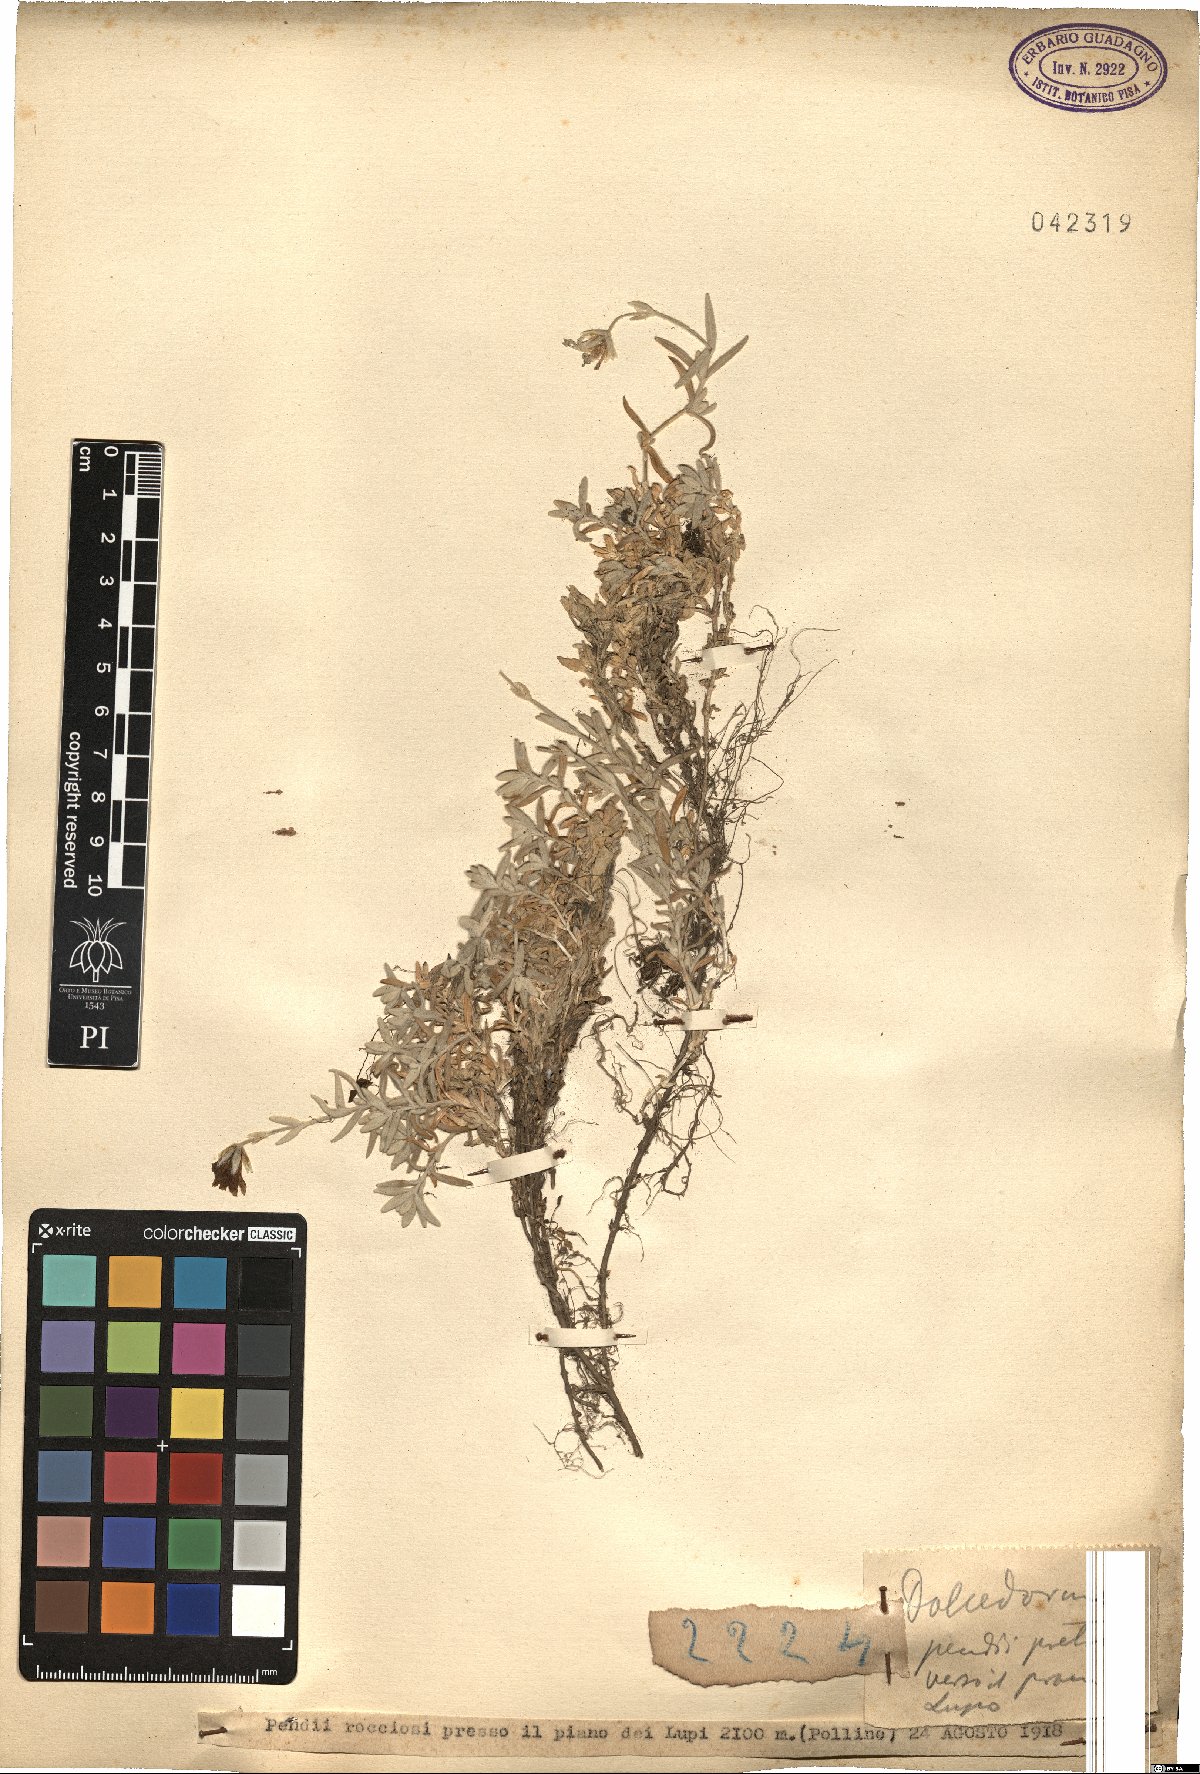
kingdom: Plantae
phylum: Tracheophyta
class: Magnoliopsida
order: Caryophyllales
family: Caryophyllaceae
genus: Cerastium
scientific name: Cerastium
